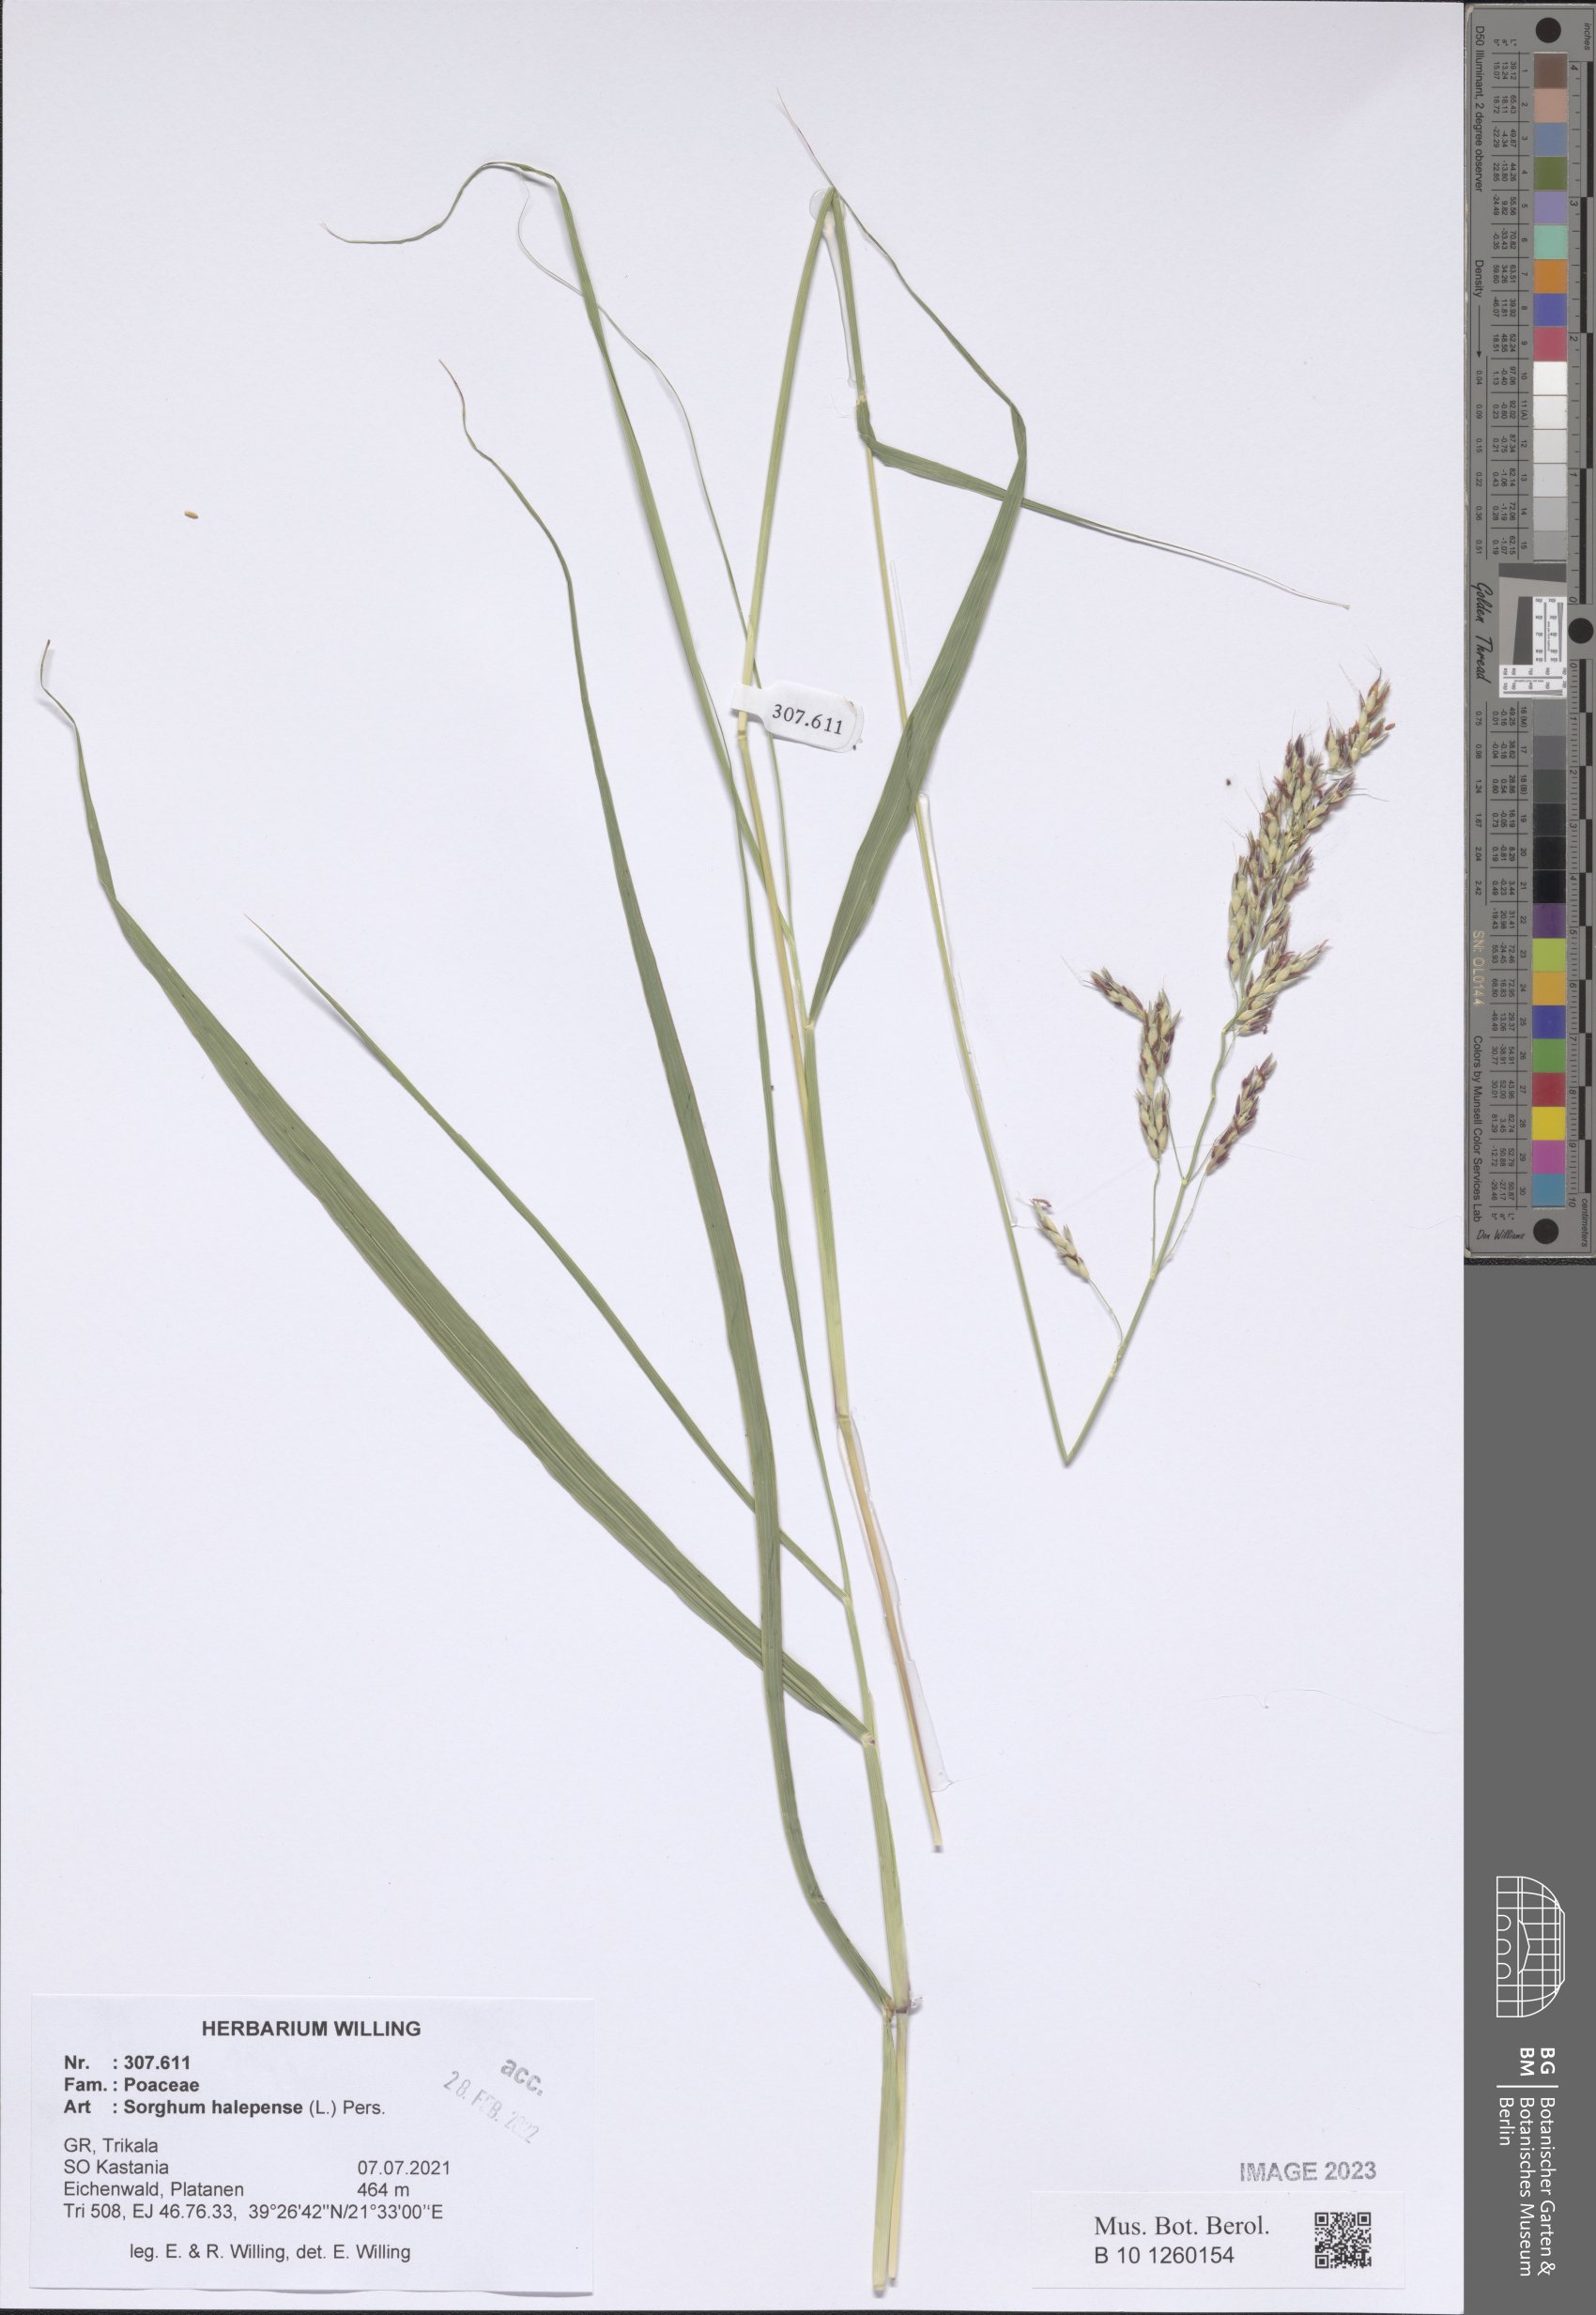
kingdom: Plantae
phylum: Tracheophyta
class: Liliopsida
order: Poales
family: Poaceae
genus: Sorghum
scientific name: Sorghum halepense
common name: Johnson-grass
